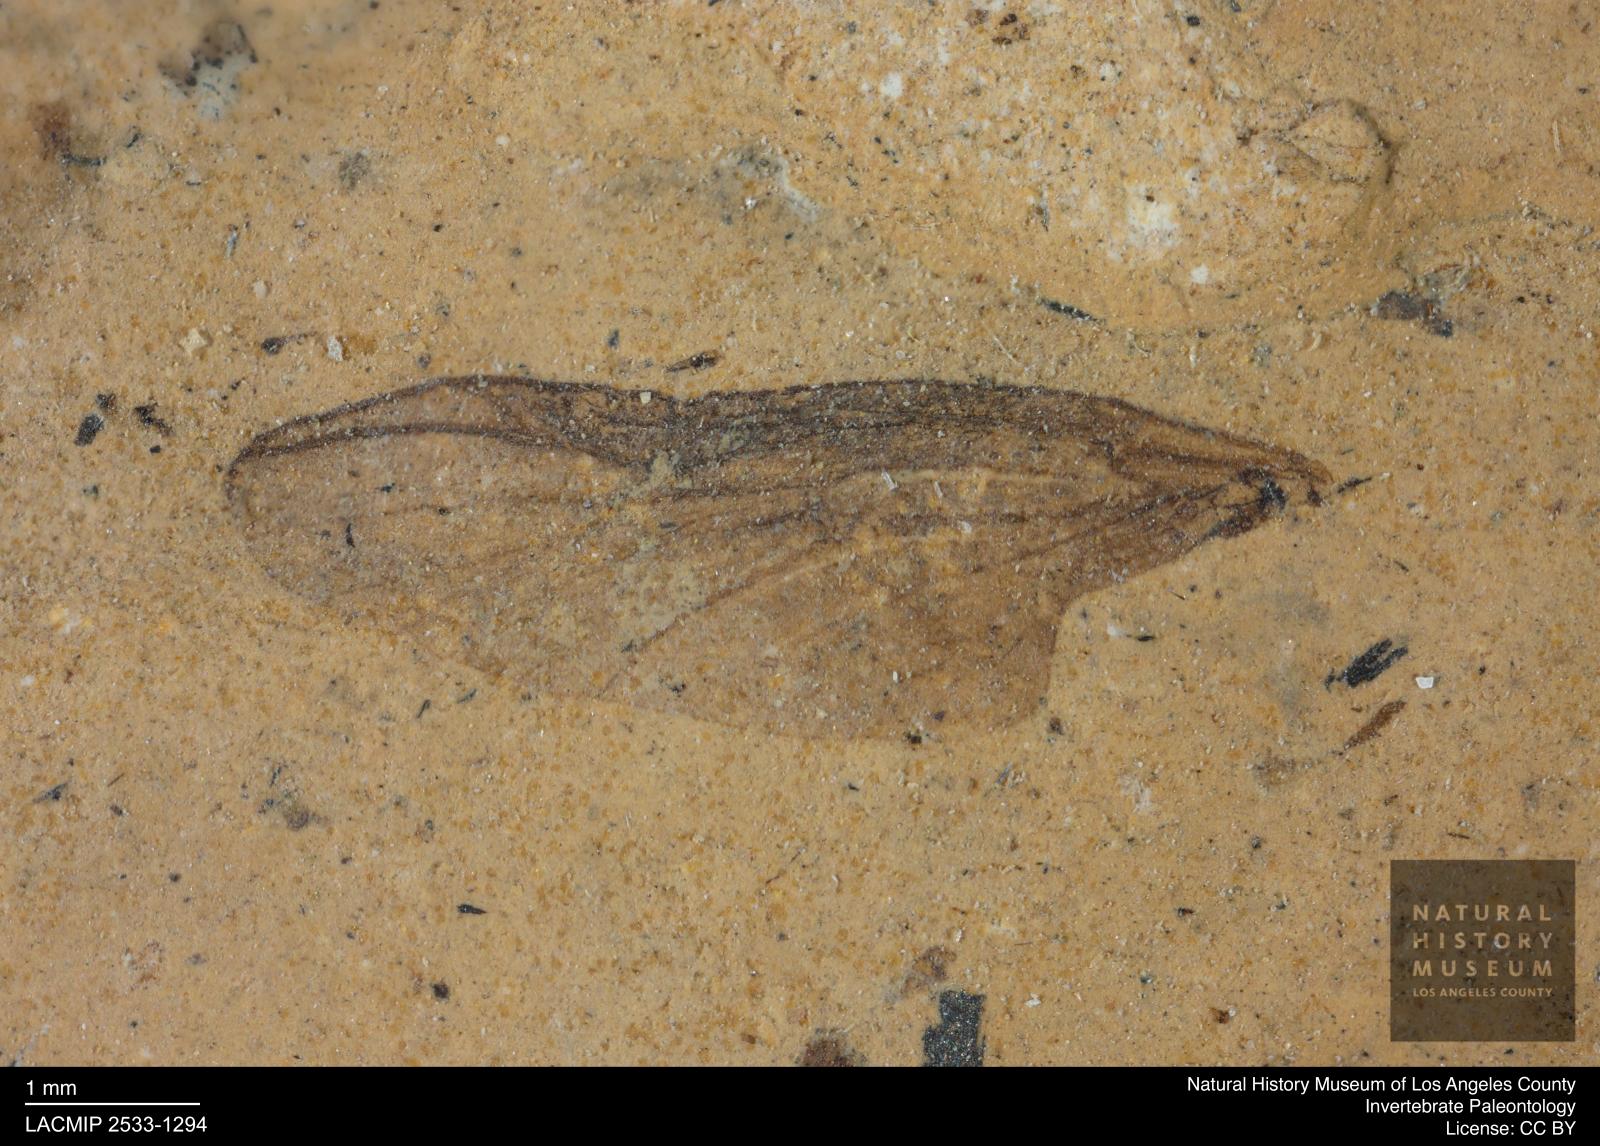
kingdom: Animalia
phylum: Arthropoda
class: Insecta
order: Diptera
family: Bibionidae
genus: Plecia
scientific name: Plecia hypogaea
